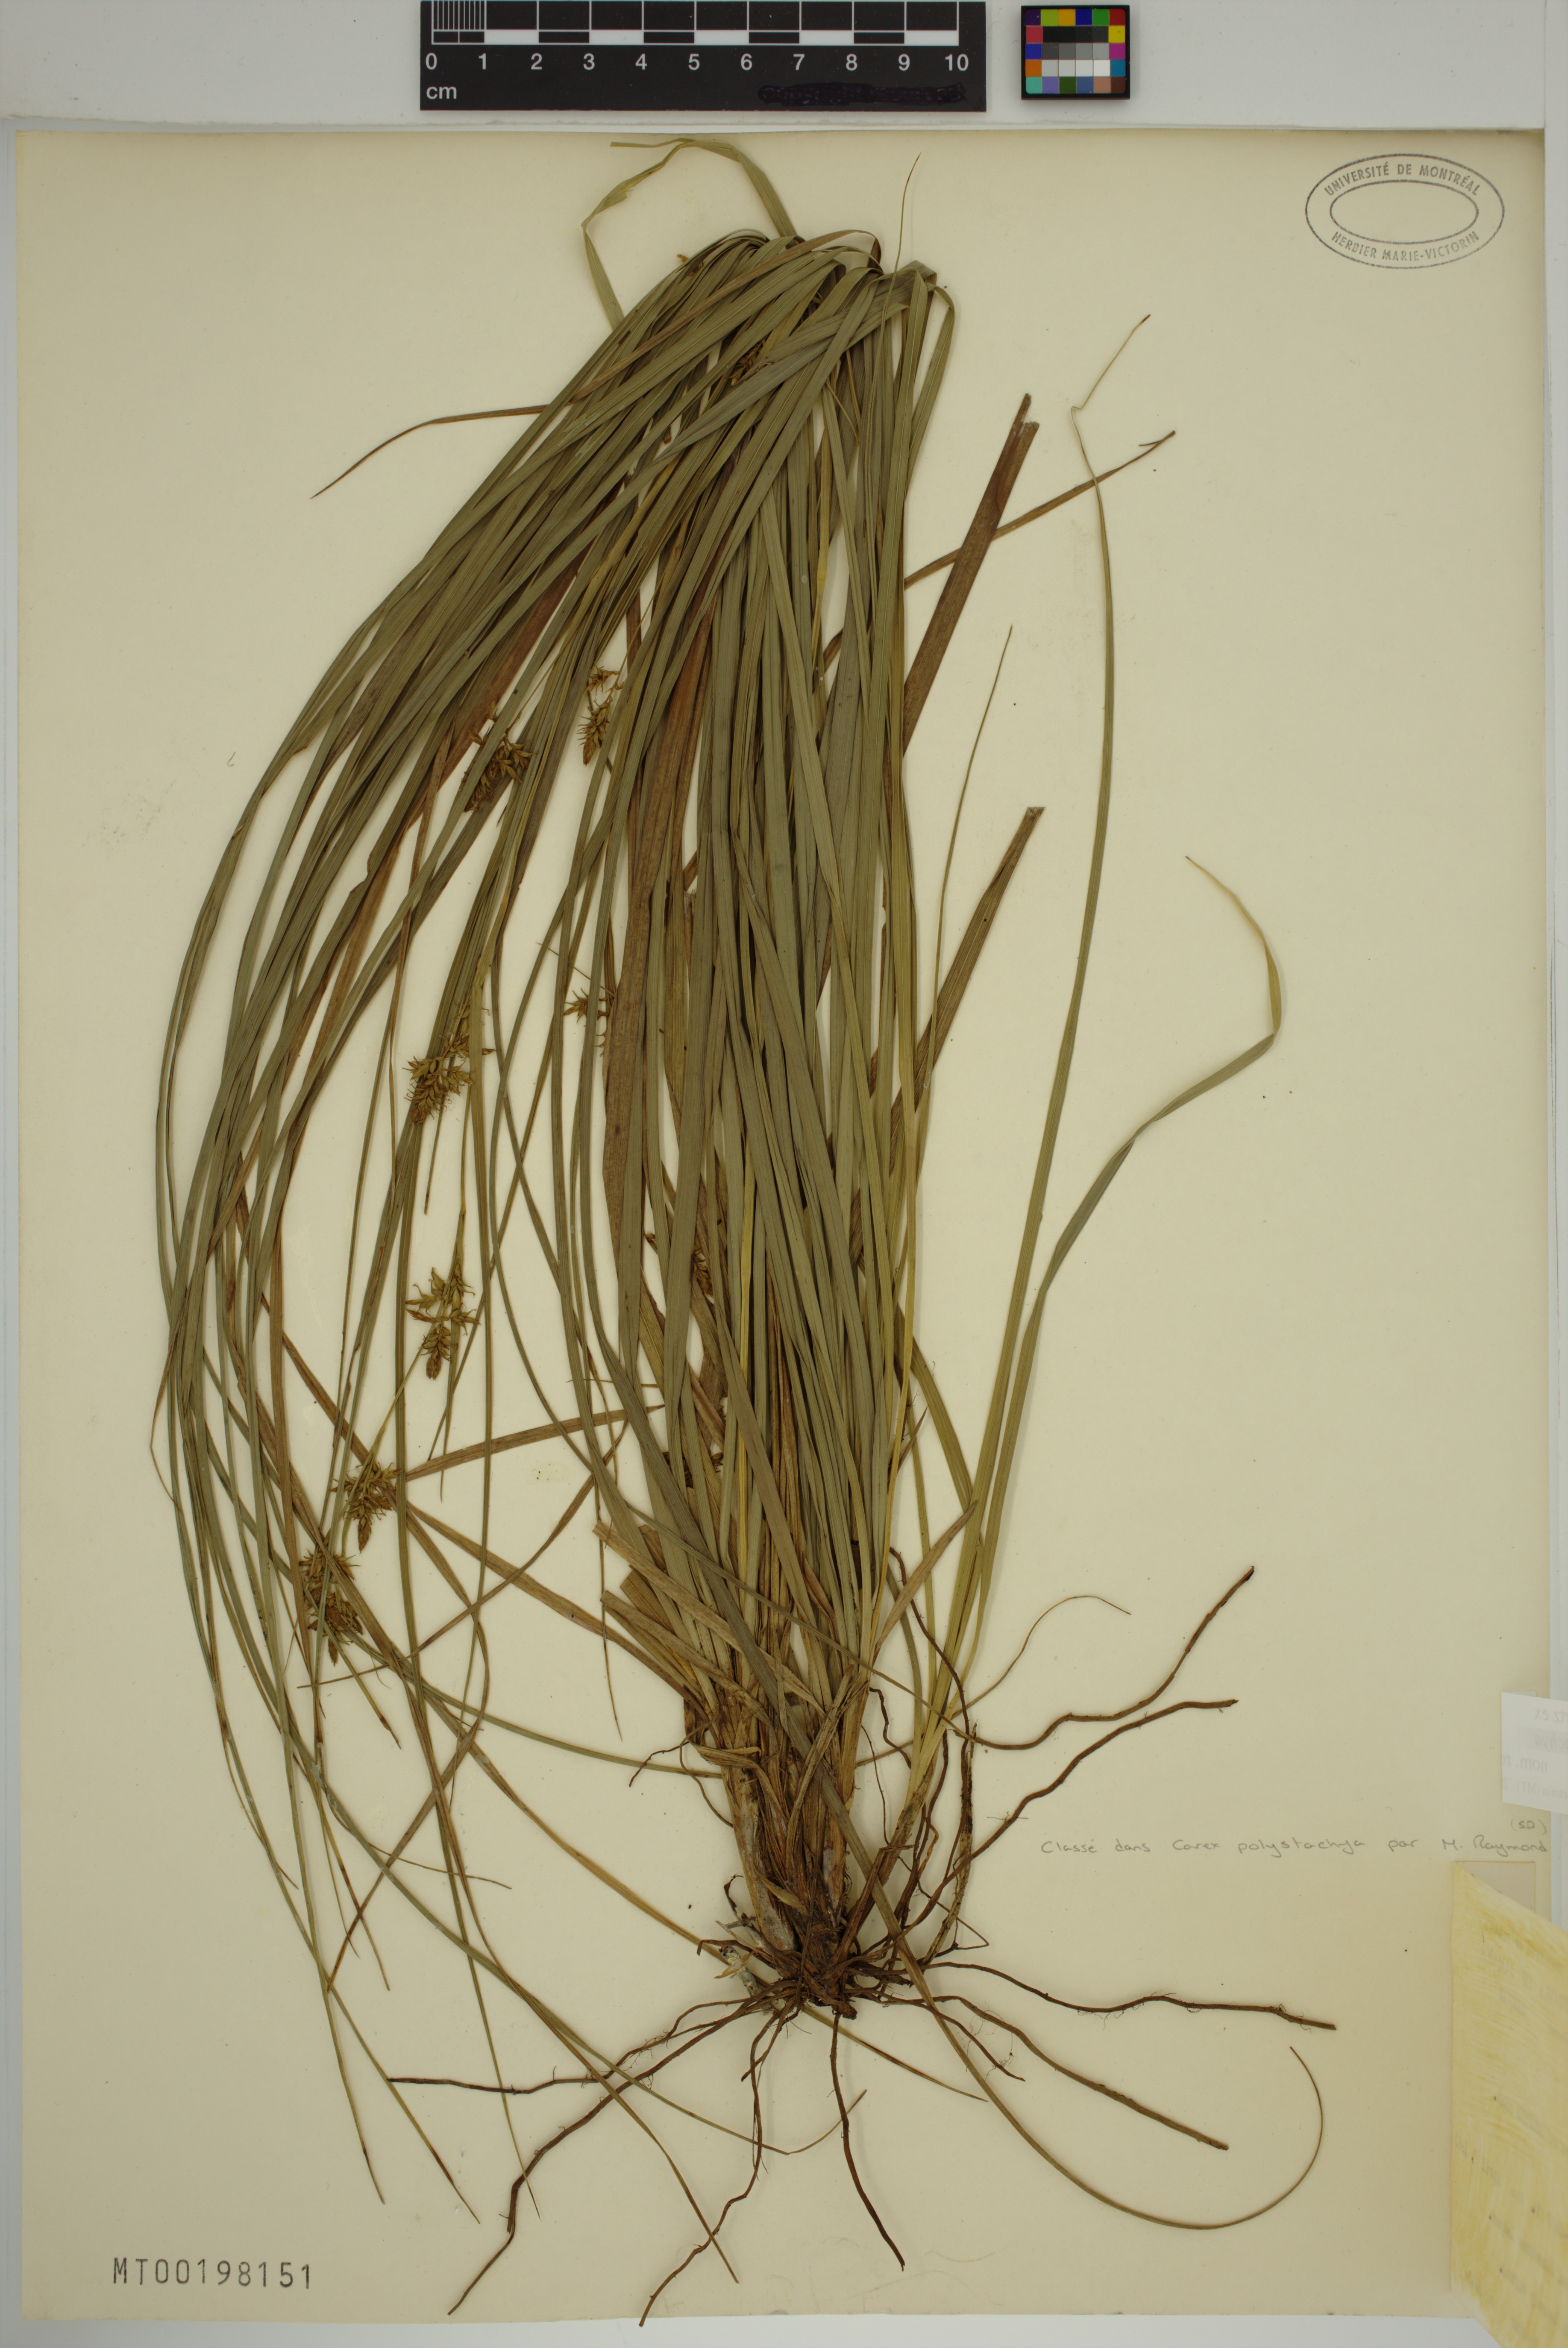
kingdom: Plantae
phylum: Tracheophyta
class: Liliopsida
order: Poales
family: Cyperaceae
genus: Carex
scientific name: Carex polystachya
